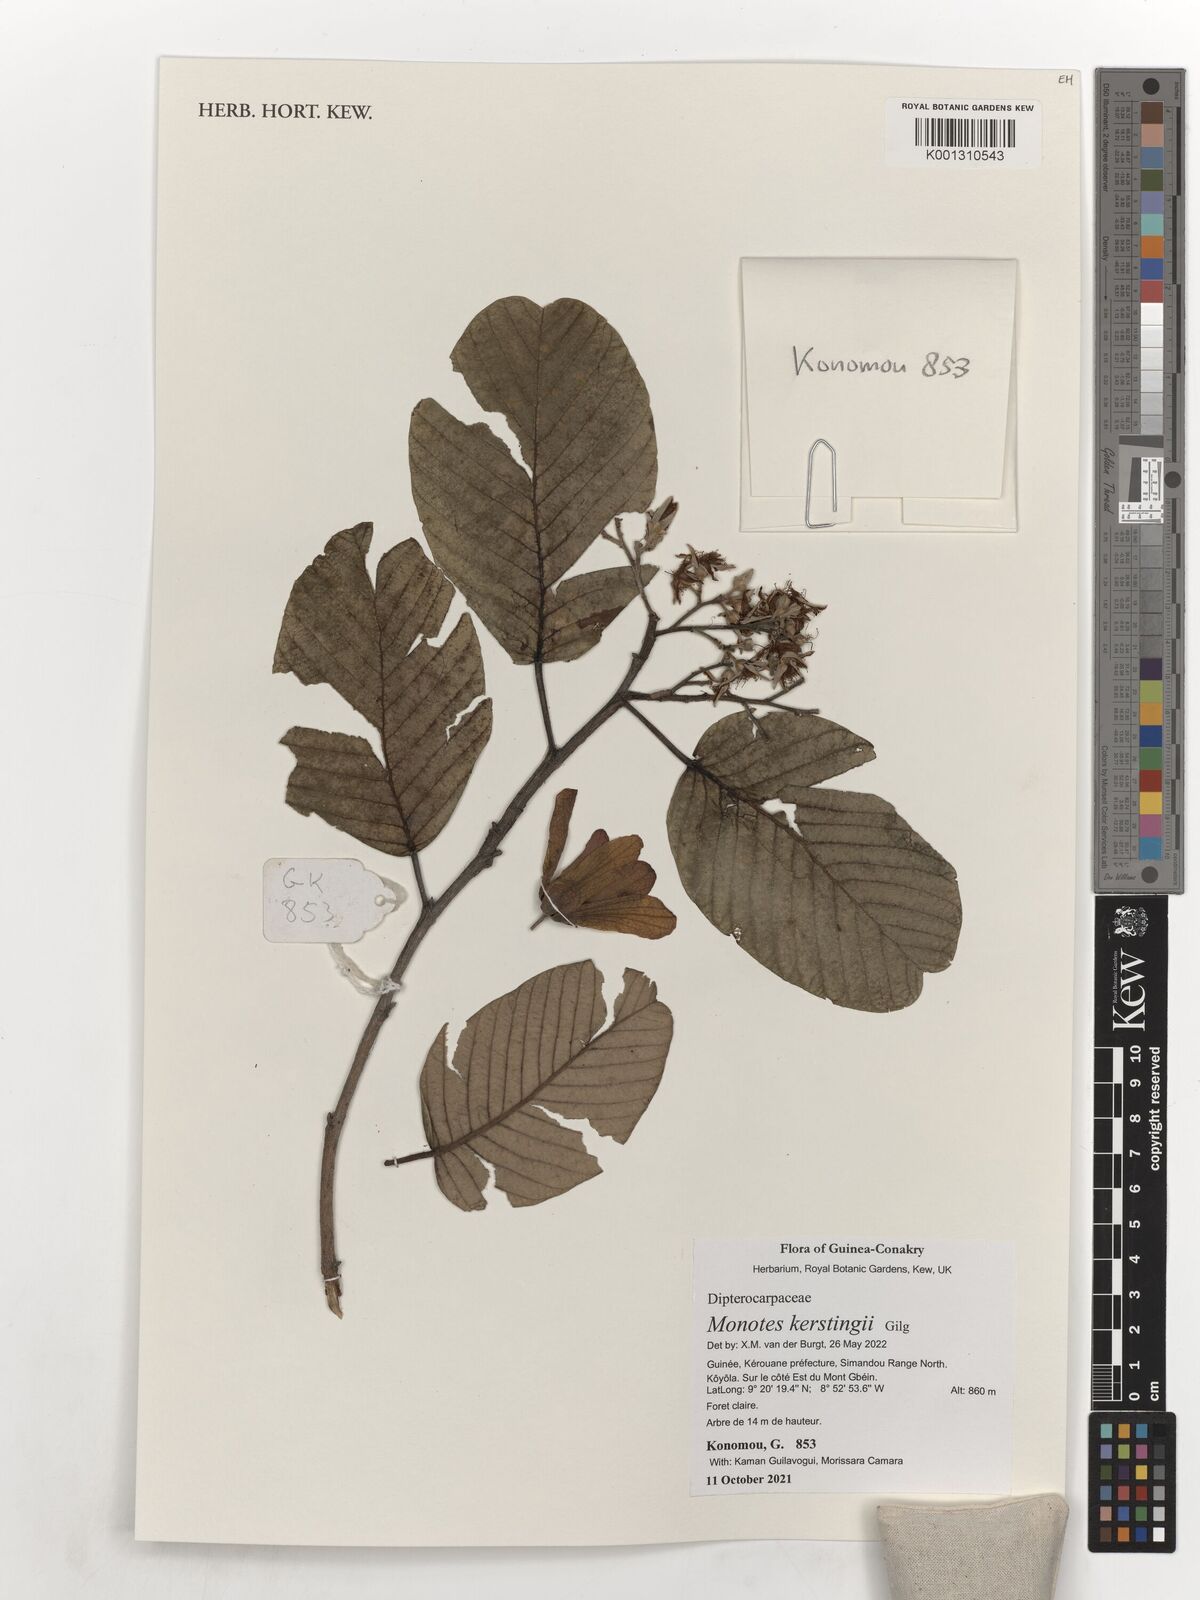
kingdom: Plantae
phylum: Tracheophyta
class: Magnoliopsida
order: Malvales
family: Dipterocarpaceae
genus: Monotes
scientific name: Monotes kerstingii
